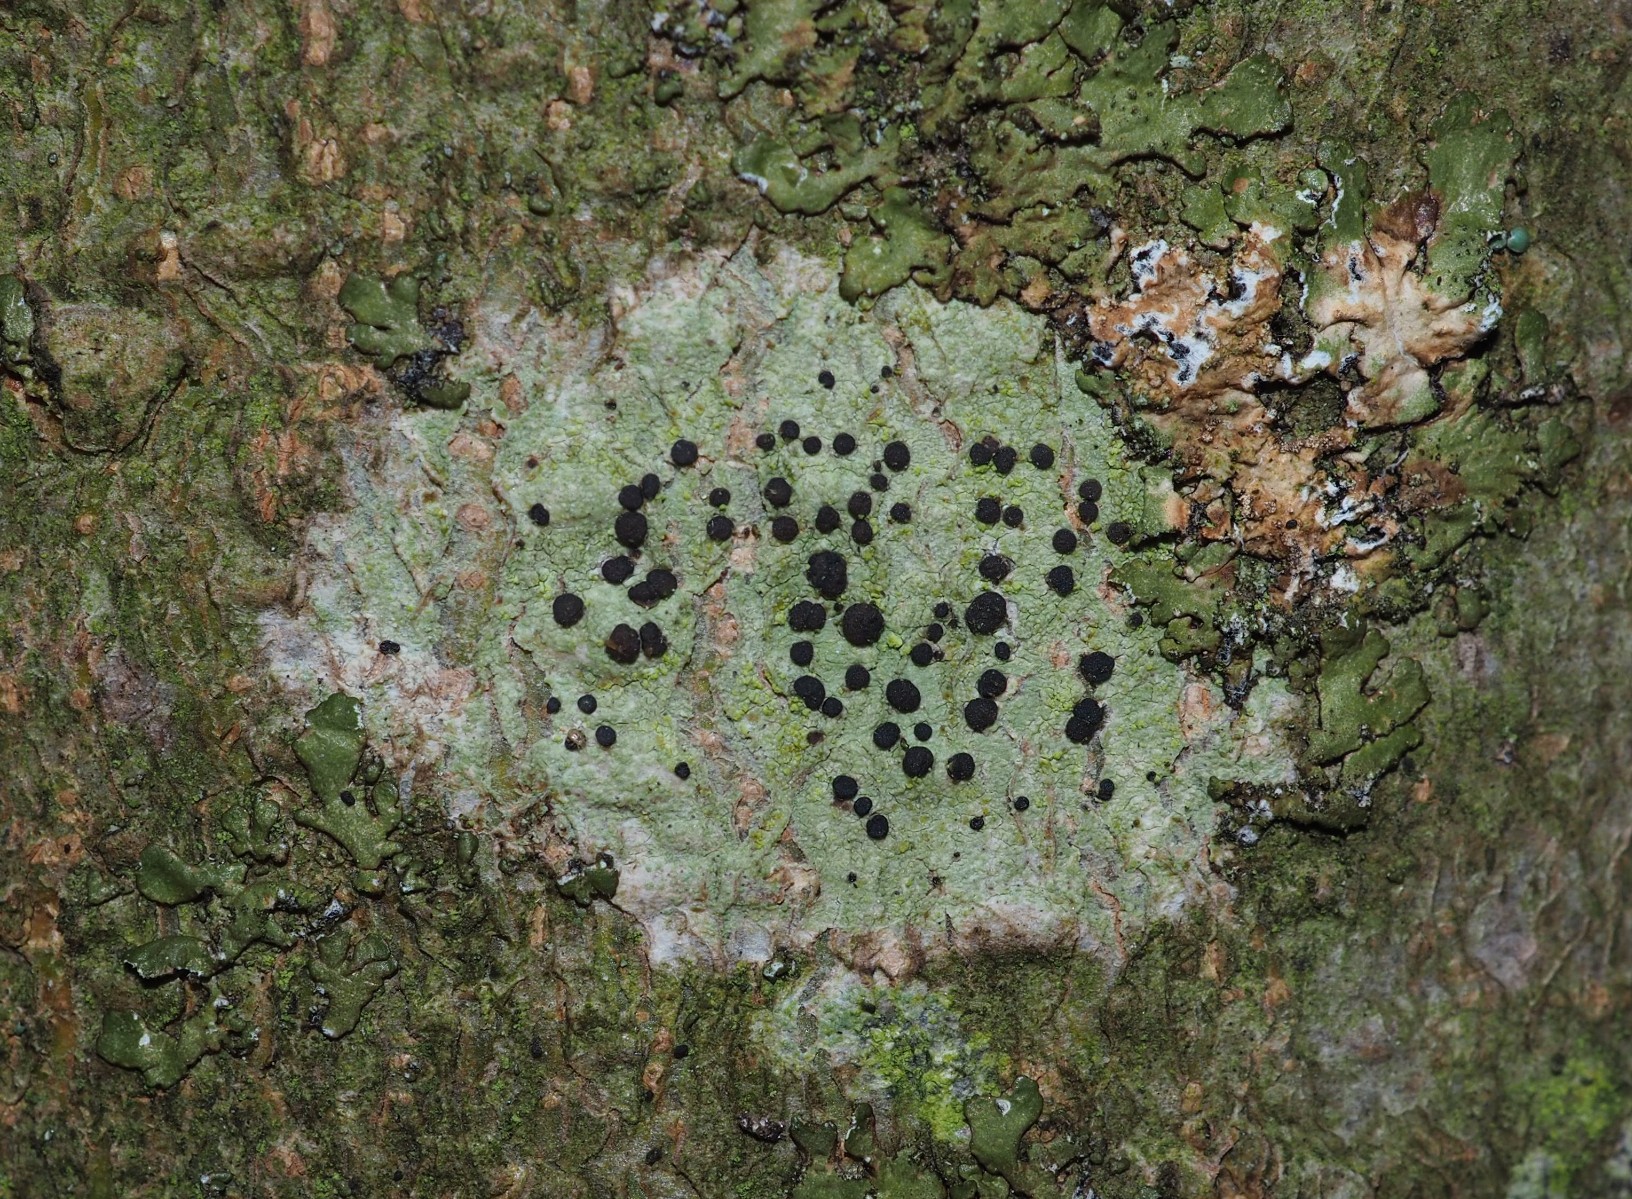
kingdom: Fungi
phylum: Ascomycota
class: Lecanoromycetes
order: Lecanorales
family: Lecanoraceae
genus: Lecidella
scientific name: Lecidella elaeochroma
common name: grågrøn skivelav
